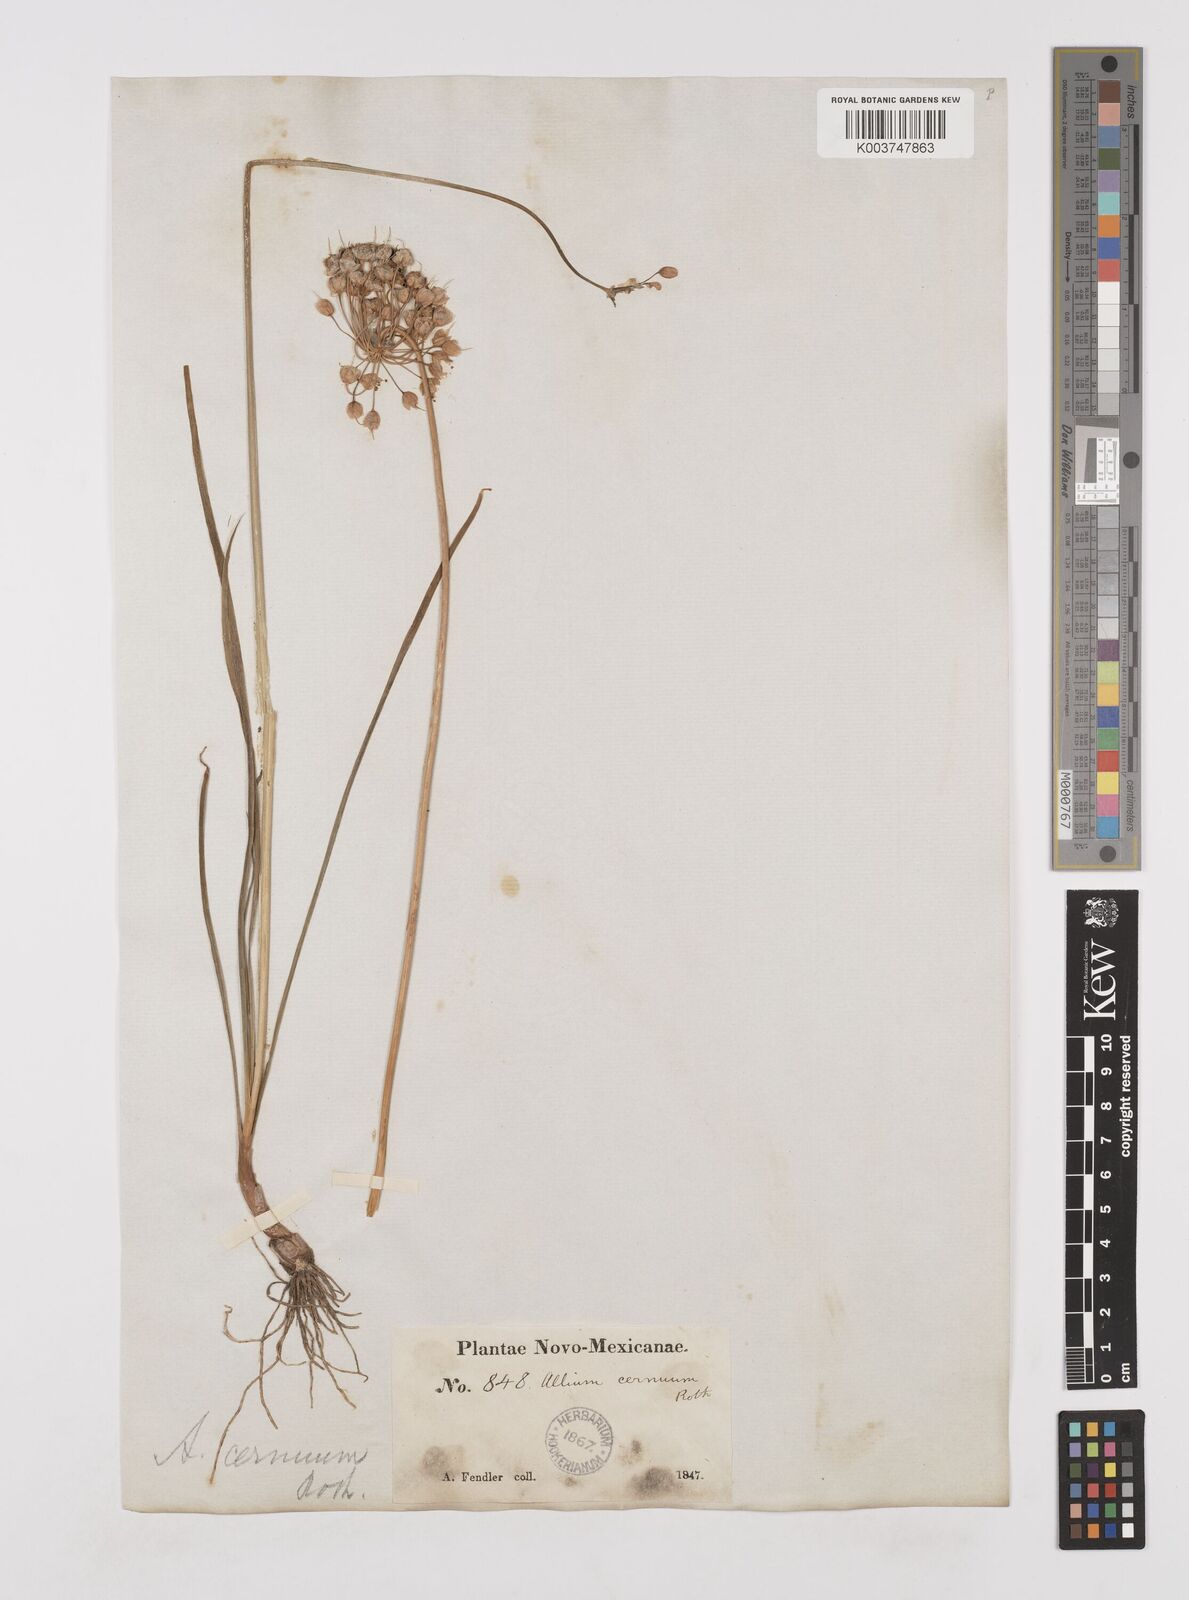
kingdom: Plantae
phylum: Tracheophyta
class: Liliopsida
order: Asparagales
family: Amaryllidaceae
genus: Allium
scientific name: Allium cernuum
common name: Nodding onion
